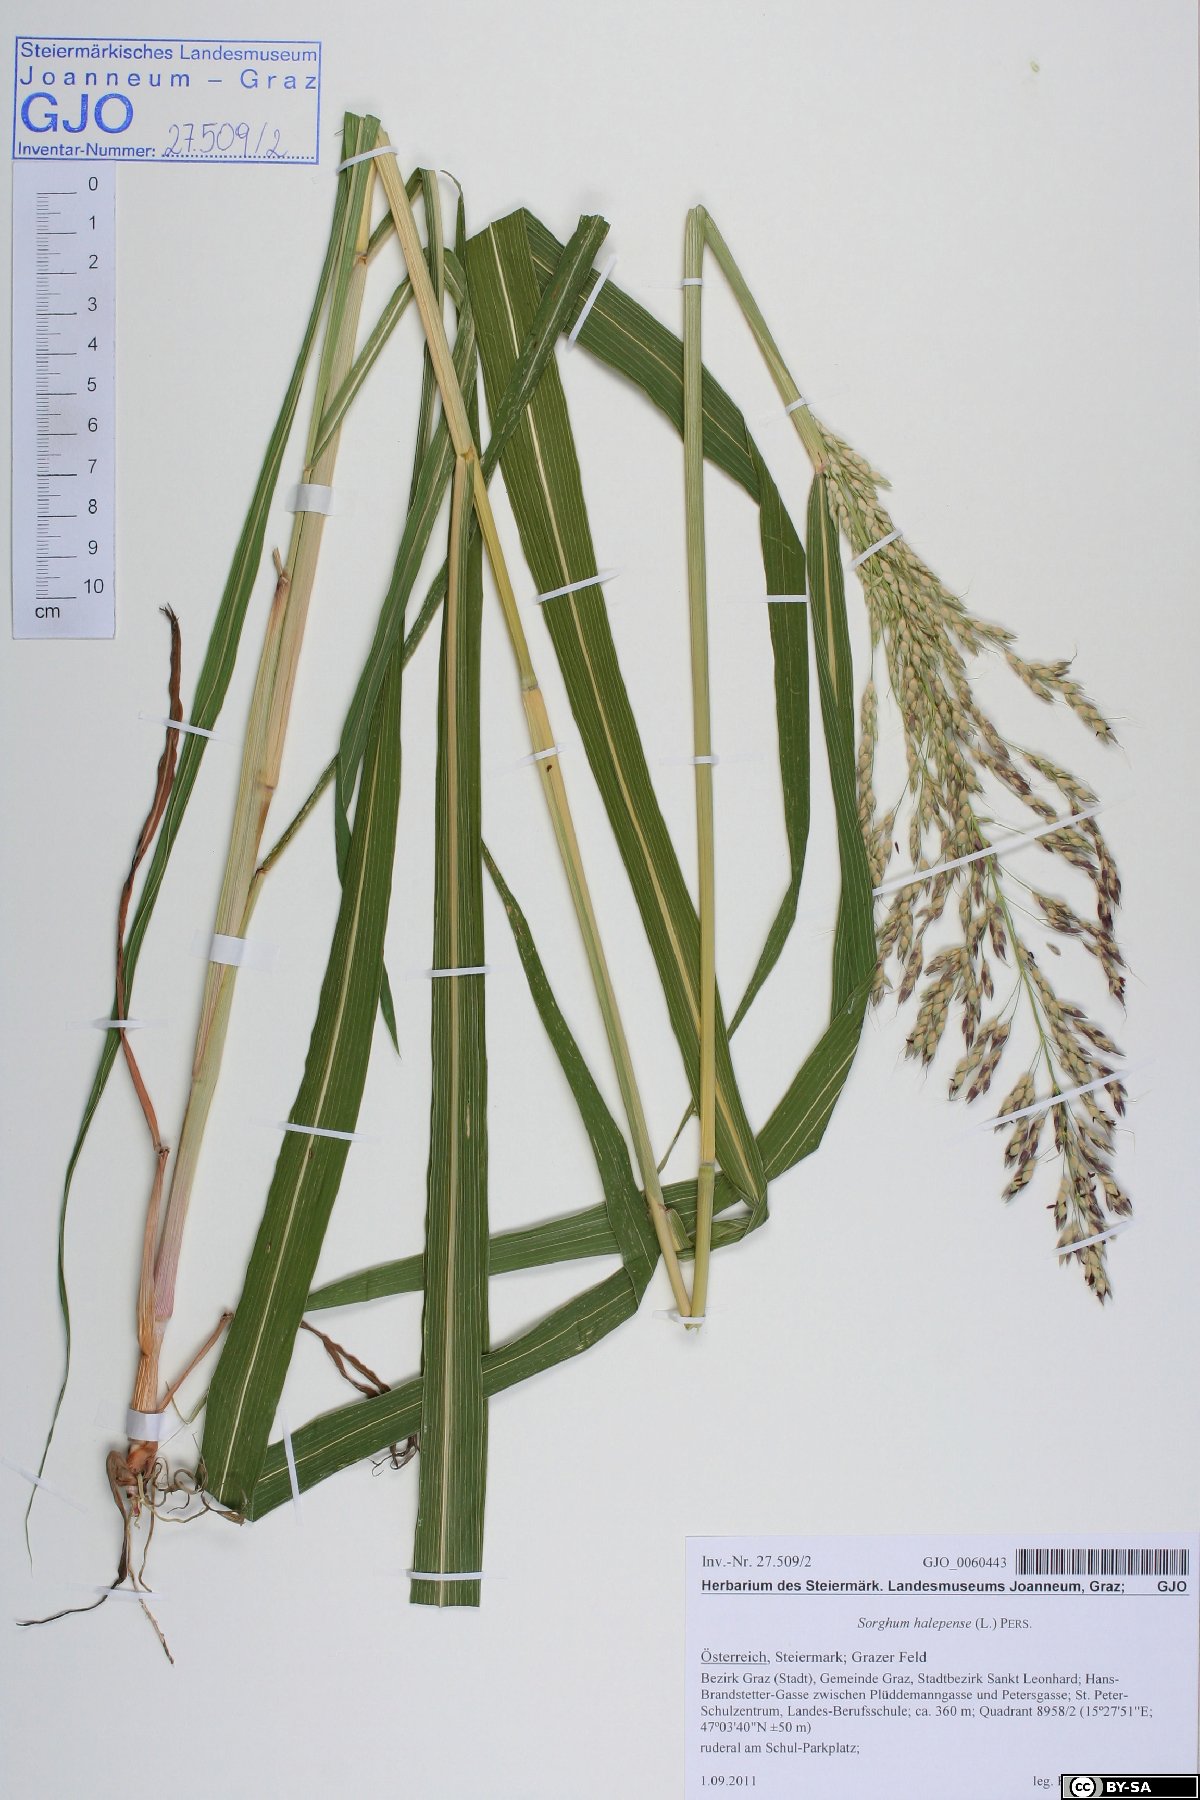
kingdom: Plantae
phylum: Tracheophyta
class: Liliopsida
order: Poales
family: Poaceae
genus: Sorghum
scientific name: Sorghum halepense
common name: Johnson-grass
